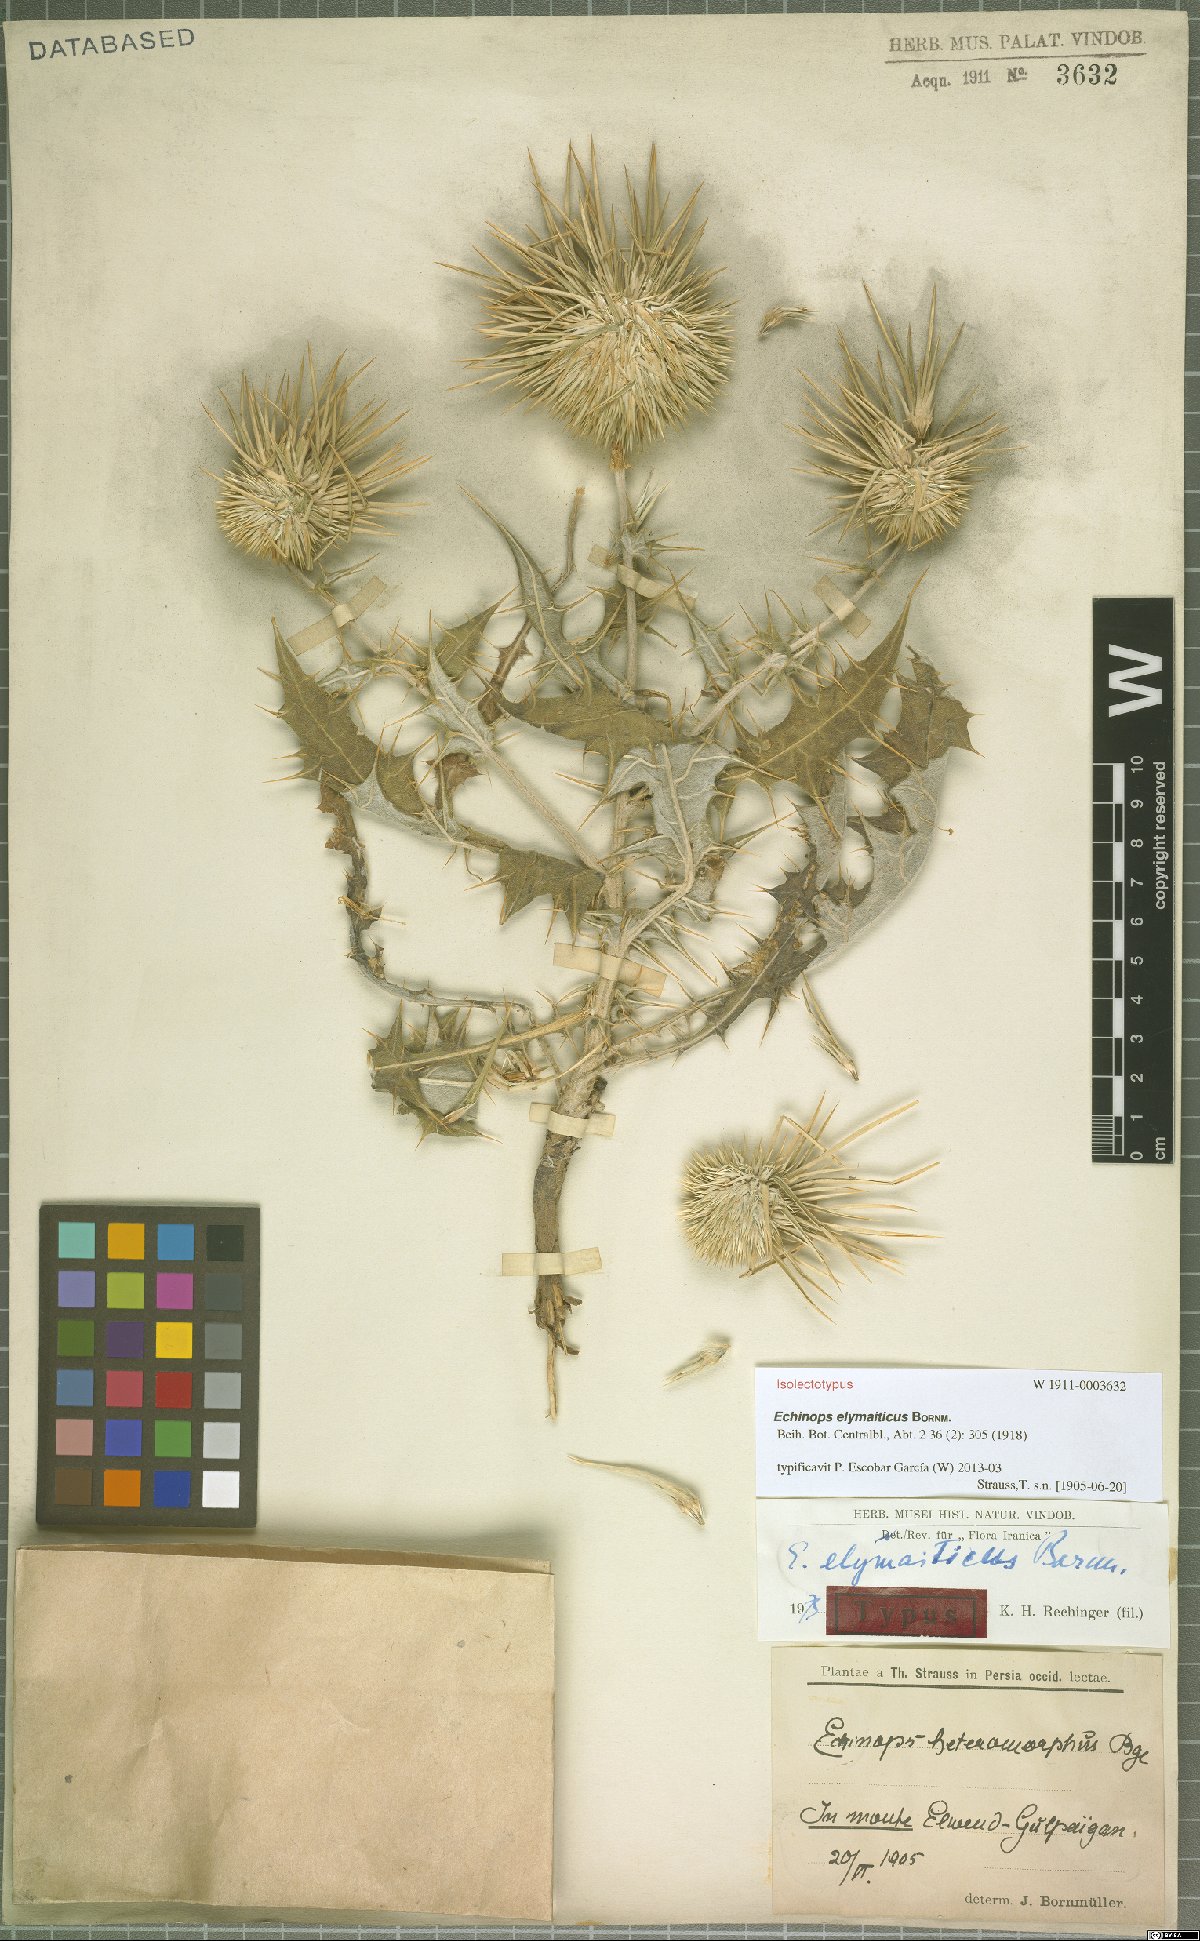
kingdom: Plantae
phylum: Tracheophyta
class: Magnoliopsida
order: Asterales
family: Asteraceae
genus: Echinops
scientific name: Echinops elymaiticus
